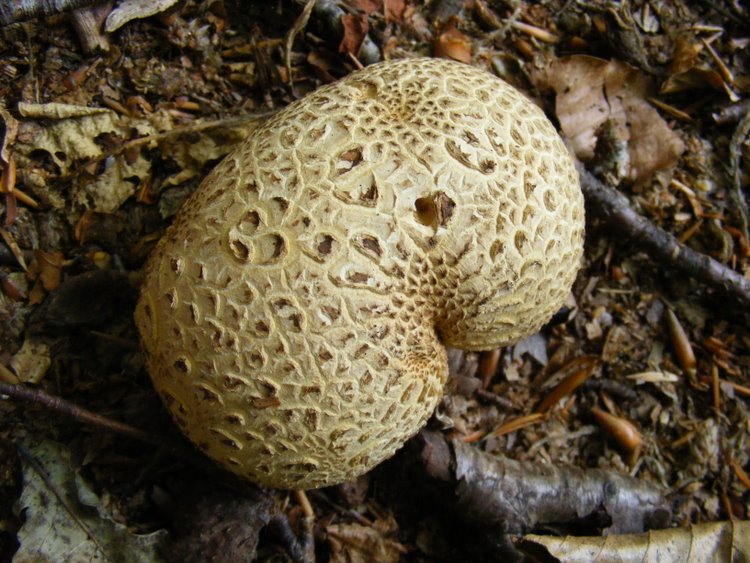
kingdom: Fungi
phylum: Basidiomycota
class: Agaricomycetes
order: Boletales
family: Sclerodermataceae
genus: Scleroderma
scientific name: Scleroderma citrinum
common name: almindelig bruskbold
